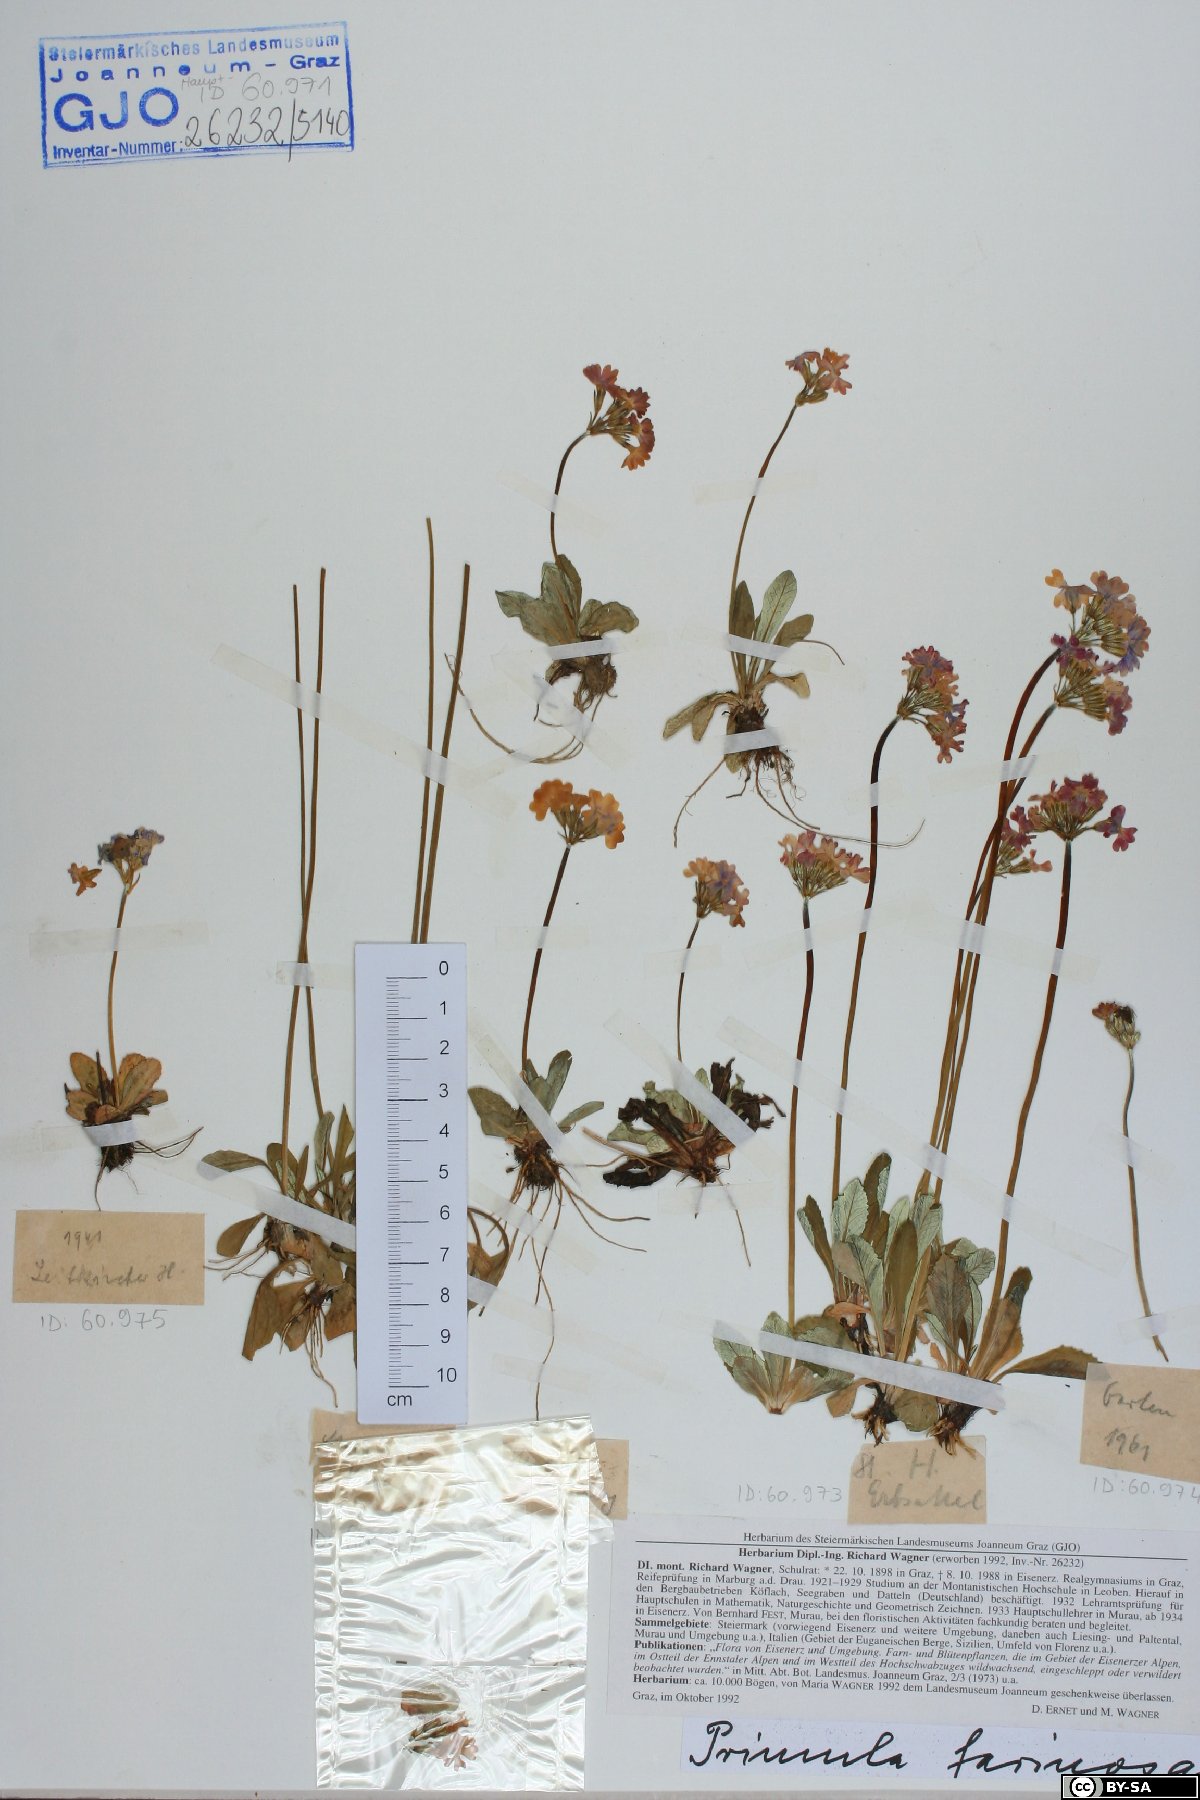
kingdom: Plantae
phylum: Tracheophyta
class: Magnoliopsida
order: Ericales
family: Primulaceae
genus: Primula
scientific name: Primula farinosa
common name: Bird's-eye primrose
